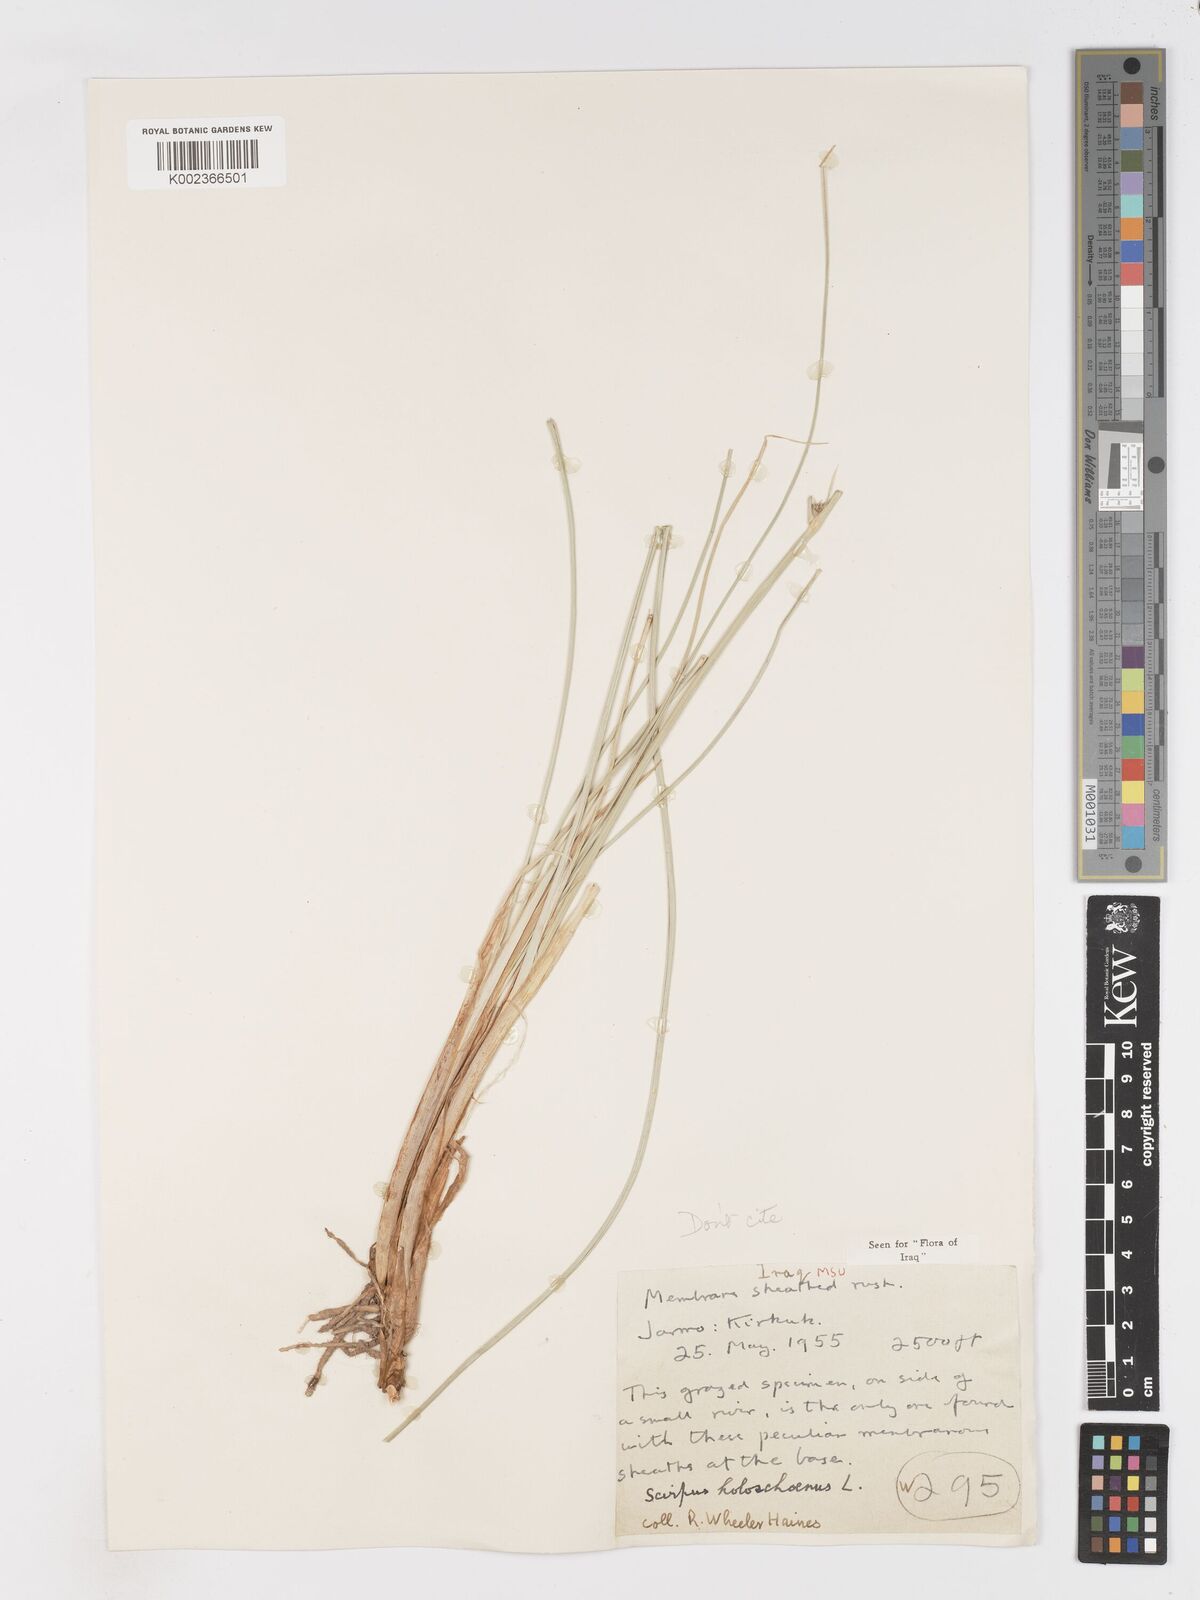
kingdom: Plantae
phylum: Tracheophyta
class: Liliopsida
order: Poales
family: Cyperaceae
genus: Scirpoides
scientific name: Scirpoides holoschoenus
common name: Round-headed club-rush
